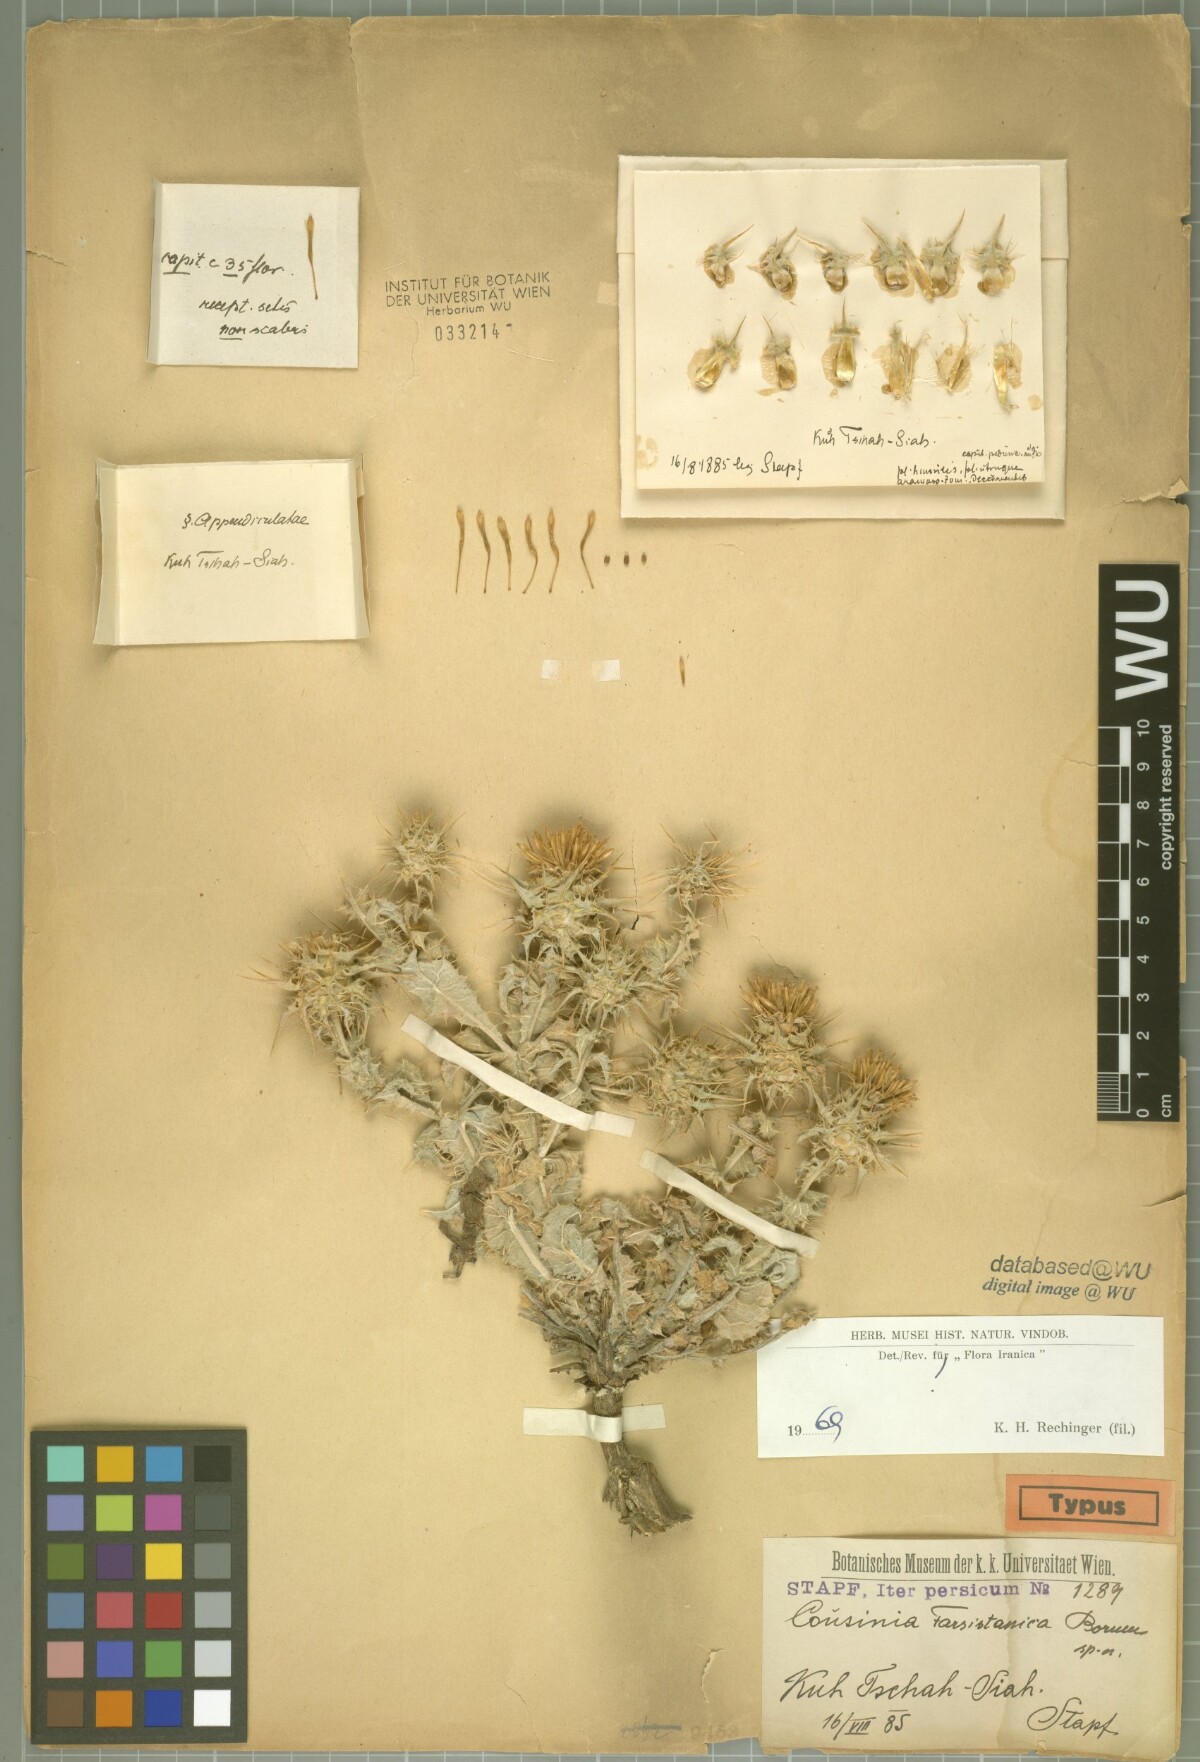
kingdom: Plantae
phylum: Tracheophyta
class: Magnoliopsida
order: Asterales
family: Asteraceae
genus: Cousinia
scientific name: Cousinia farsistanica
